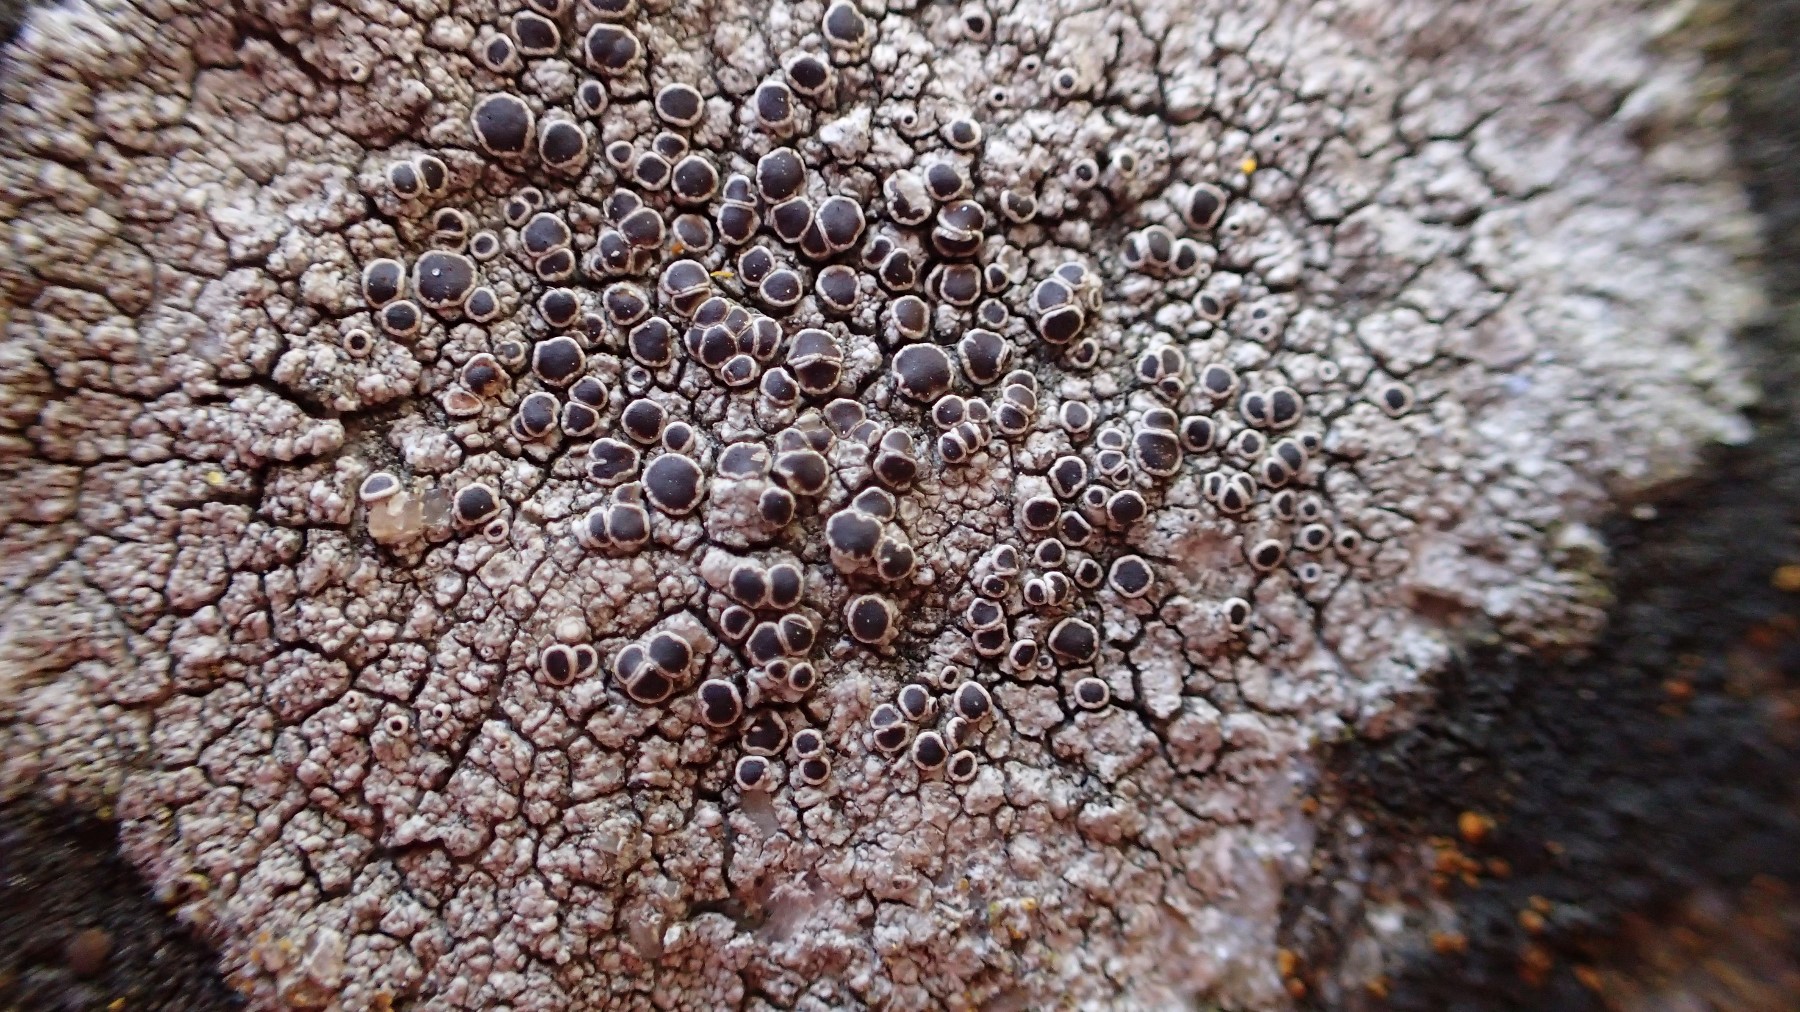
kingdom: Fungi
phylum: Ascomycota
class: Lecanoromycetes
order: Lecanorales
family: Lecanoraceae
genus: Lecanora
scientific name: Lecanora campestris
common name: mur-kantskivelav
